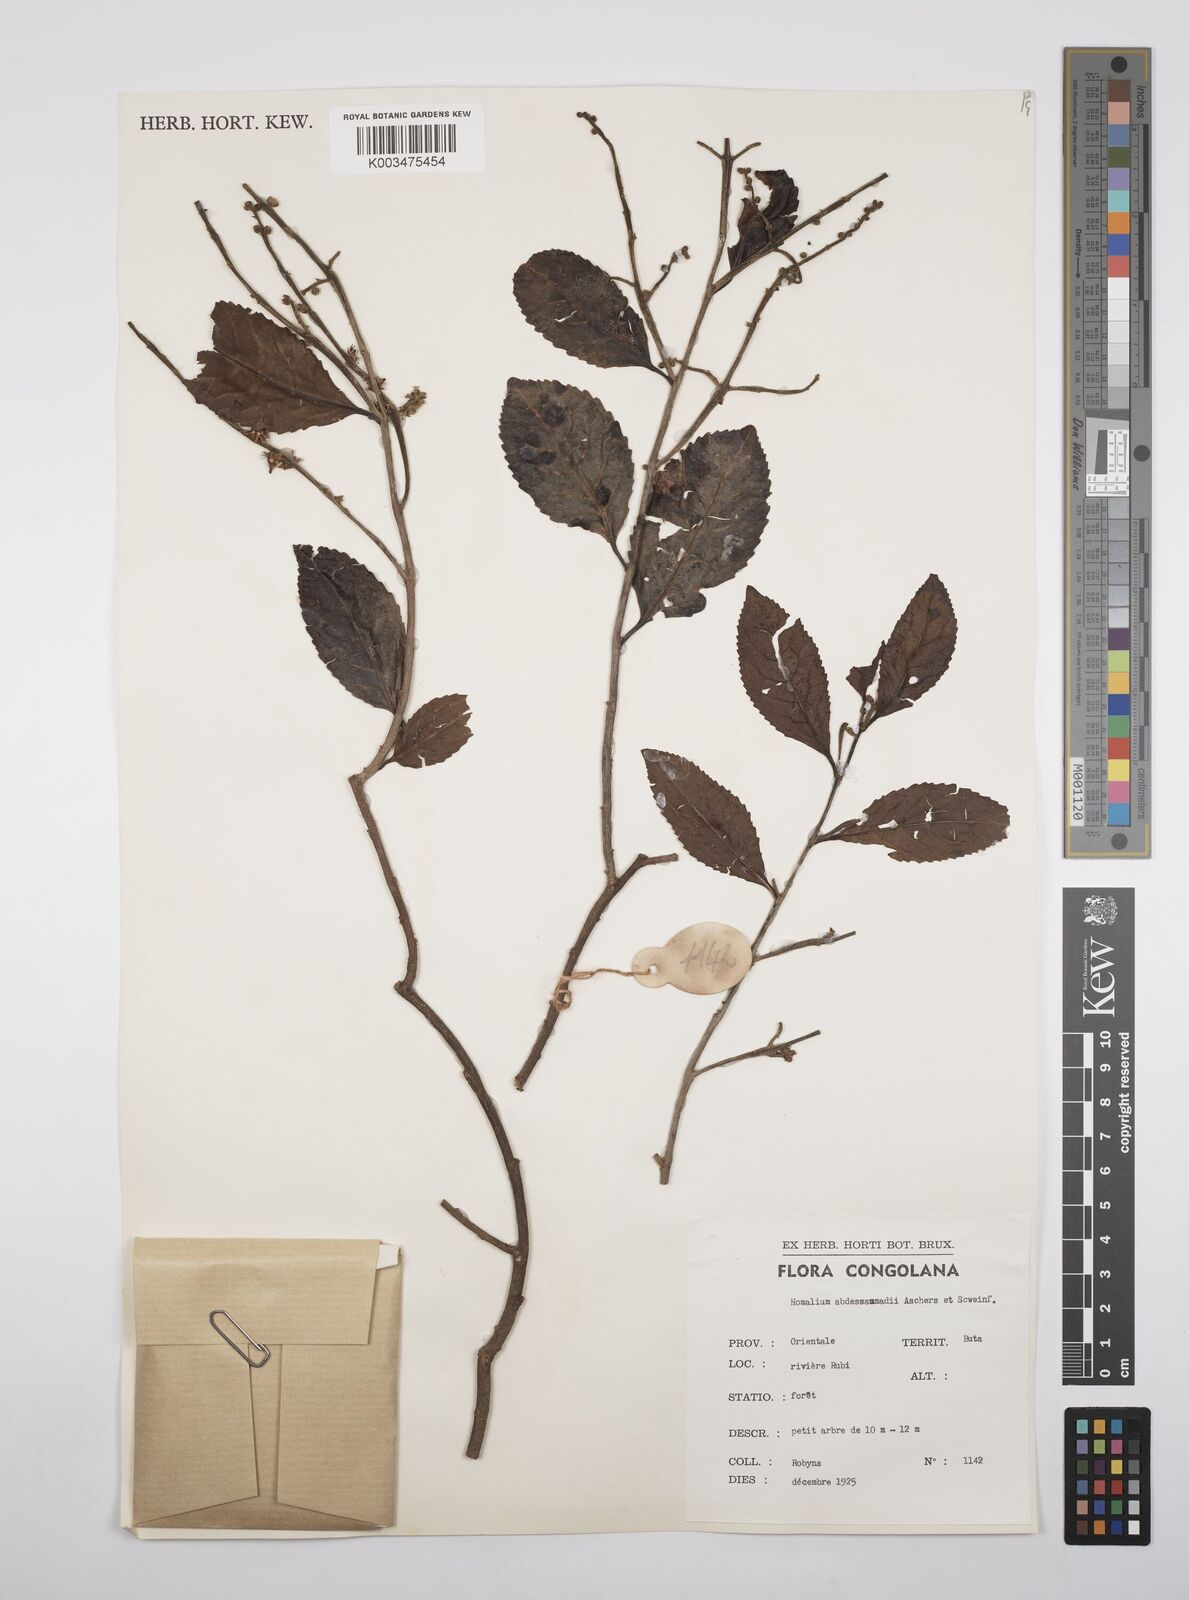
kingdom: Plantae
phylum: Tracheophyta
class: Magnoliopsida
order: Malpighiales
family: Salicaceae
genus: Homalium
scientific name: Homalium abdessammadii
